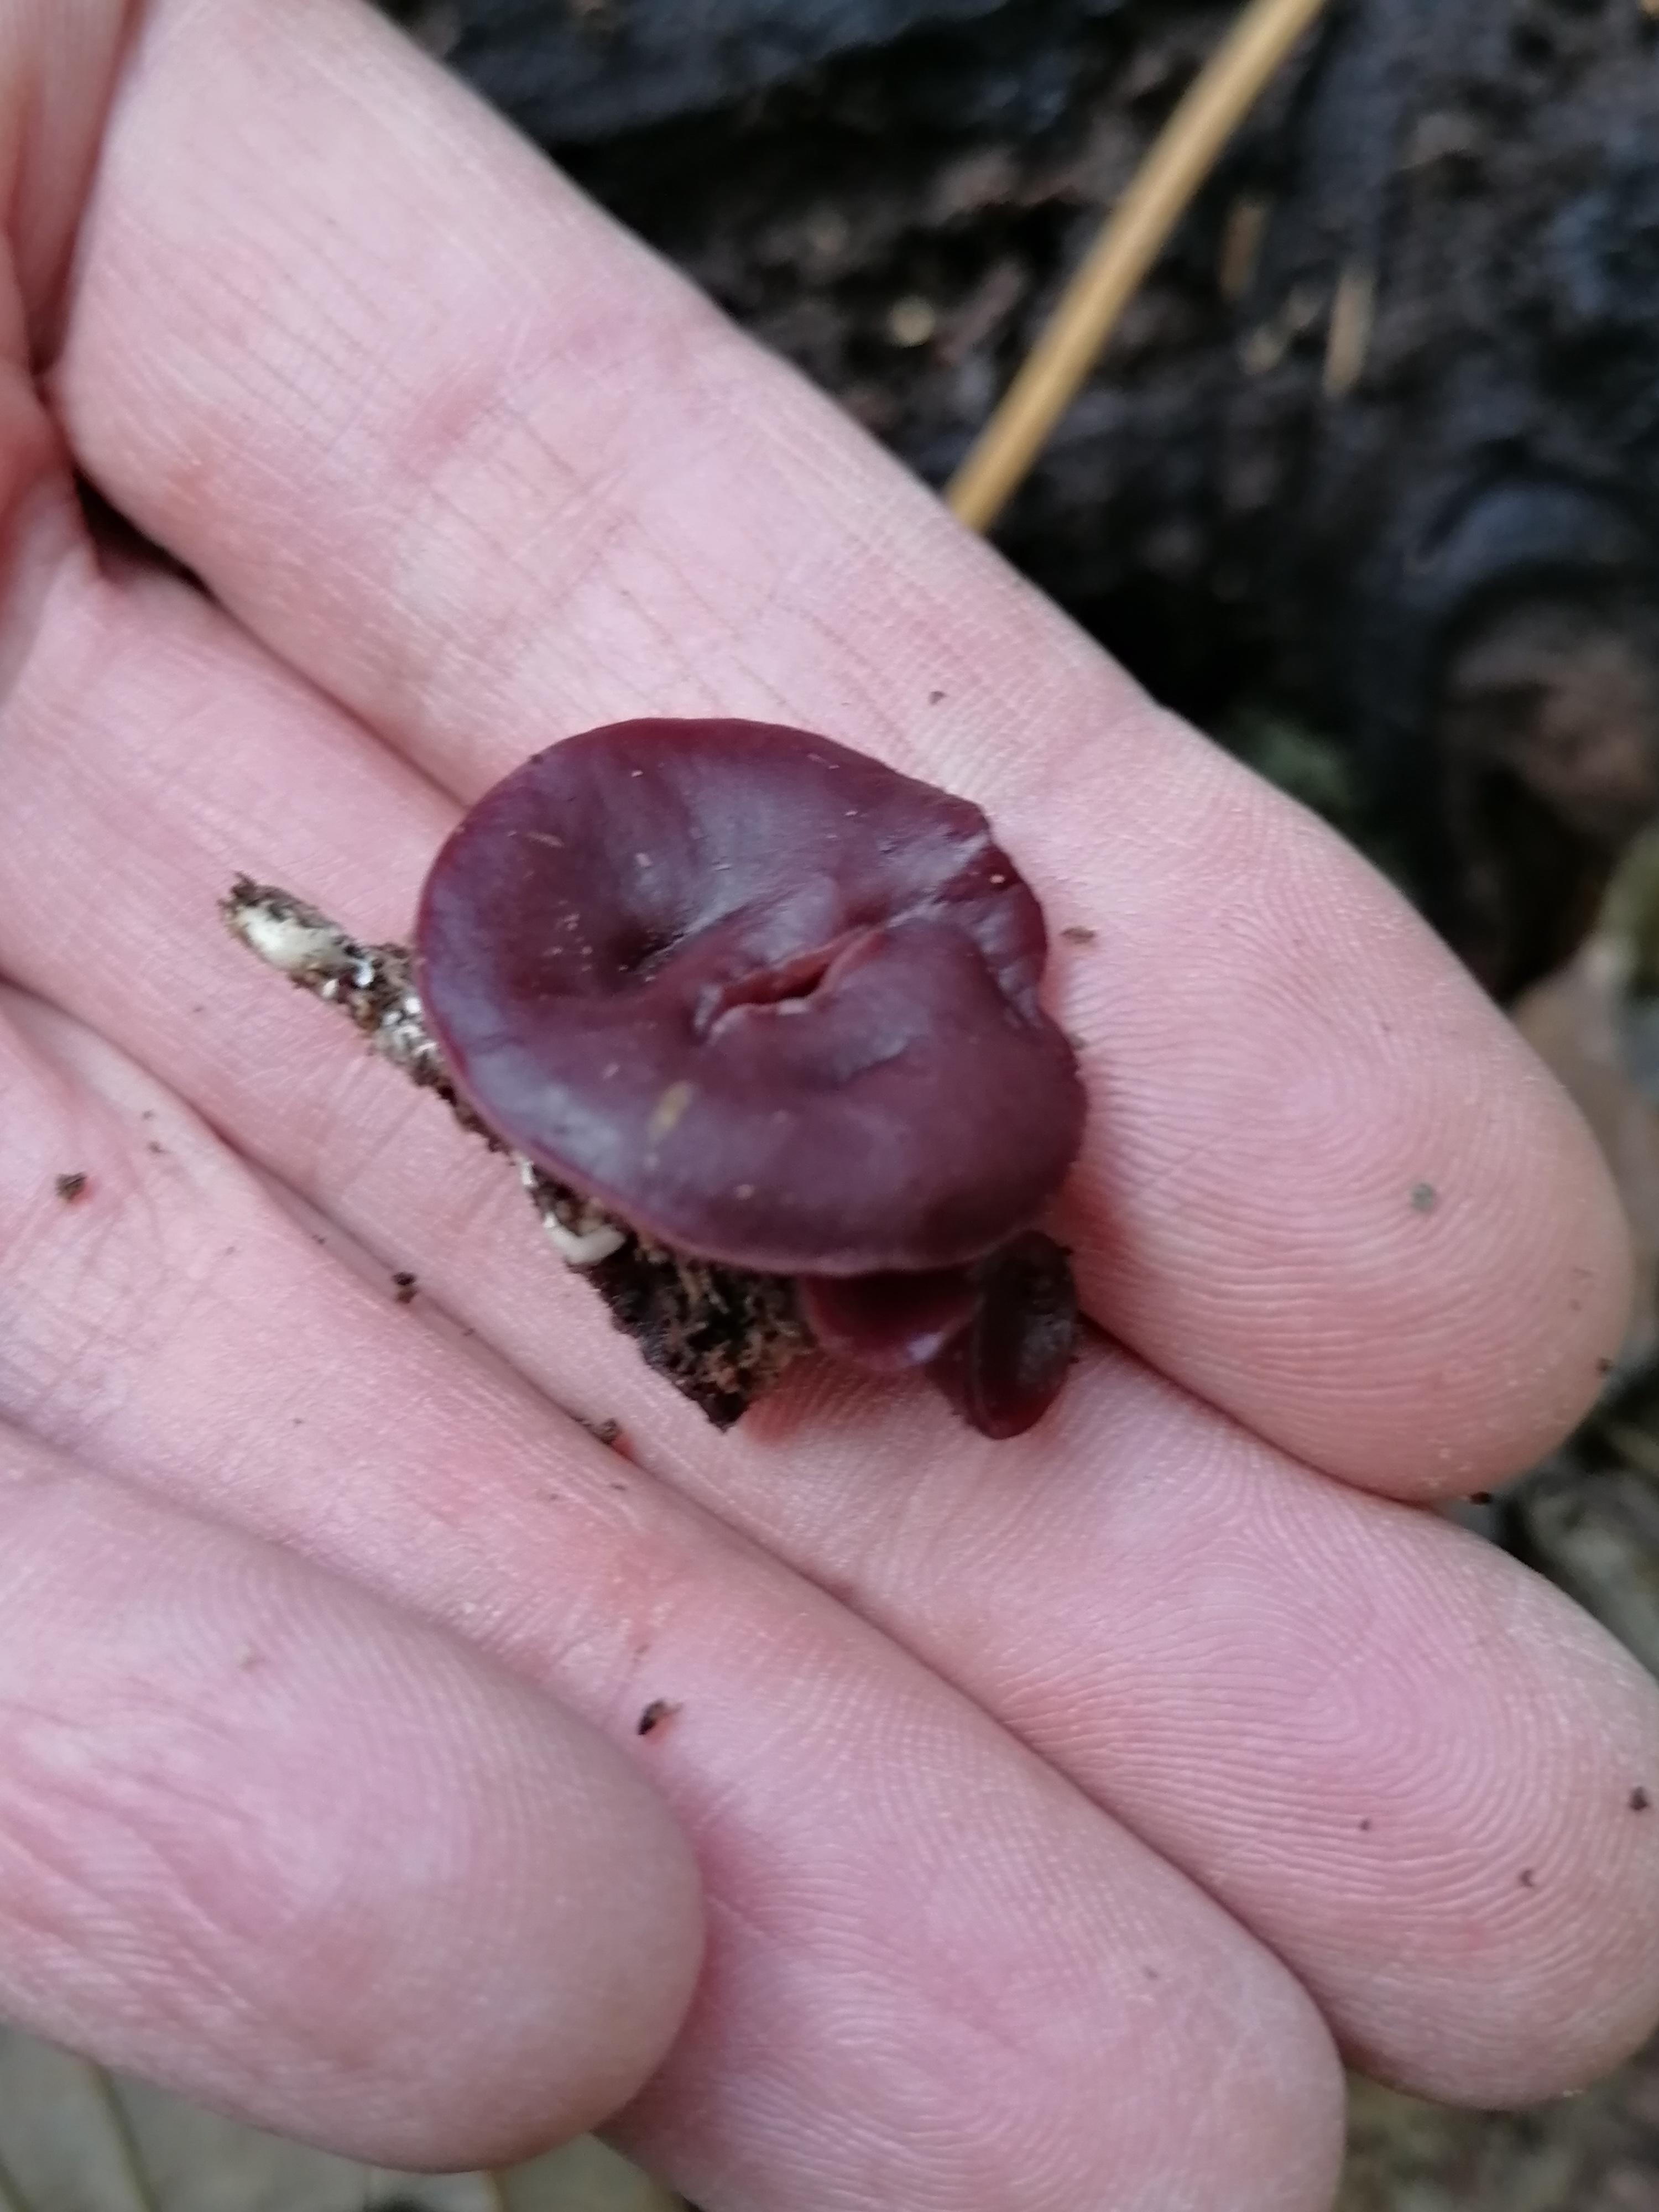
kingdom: Fungi
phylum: Ascomycota
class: Leotiomycetes
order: Helotiales
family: Gelatinodiscaceae
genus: Ascocoryne
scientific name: Ascocoryne cylichnium
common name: stor sejskive
